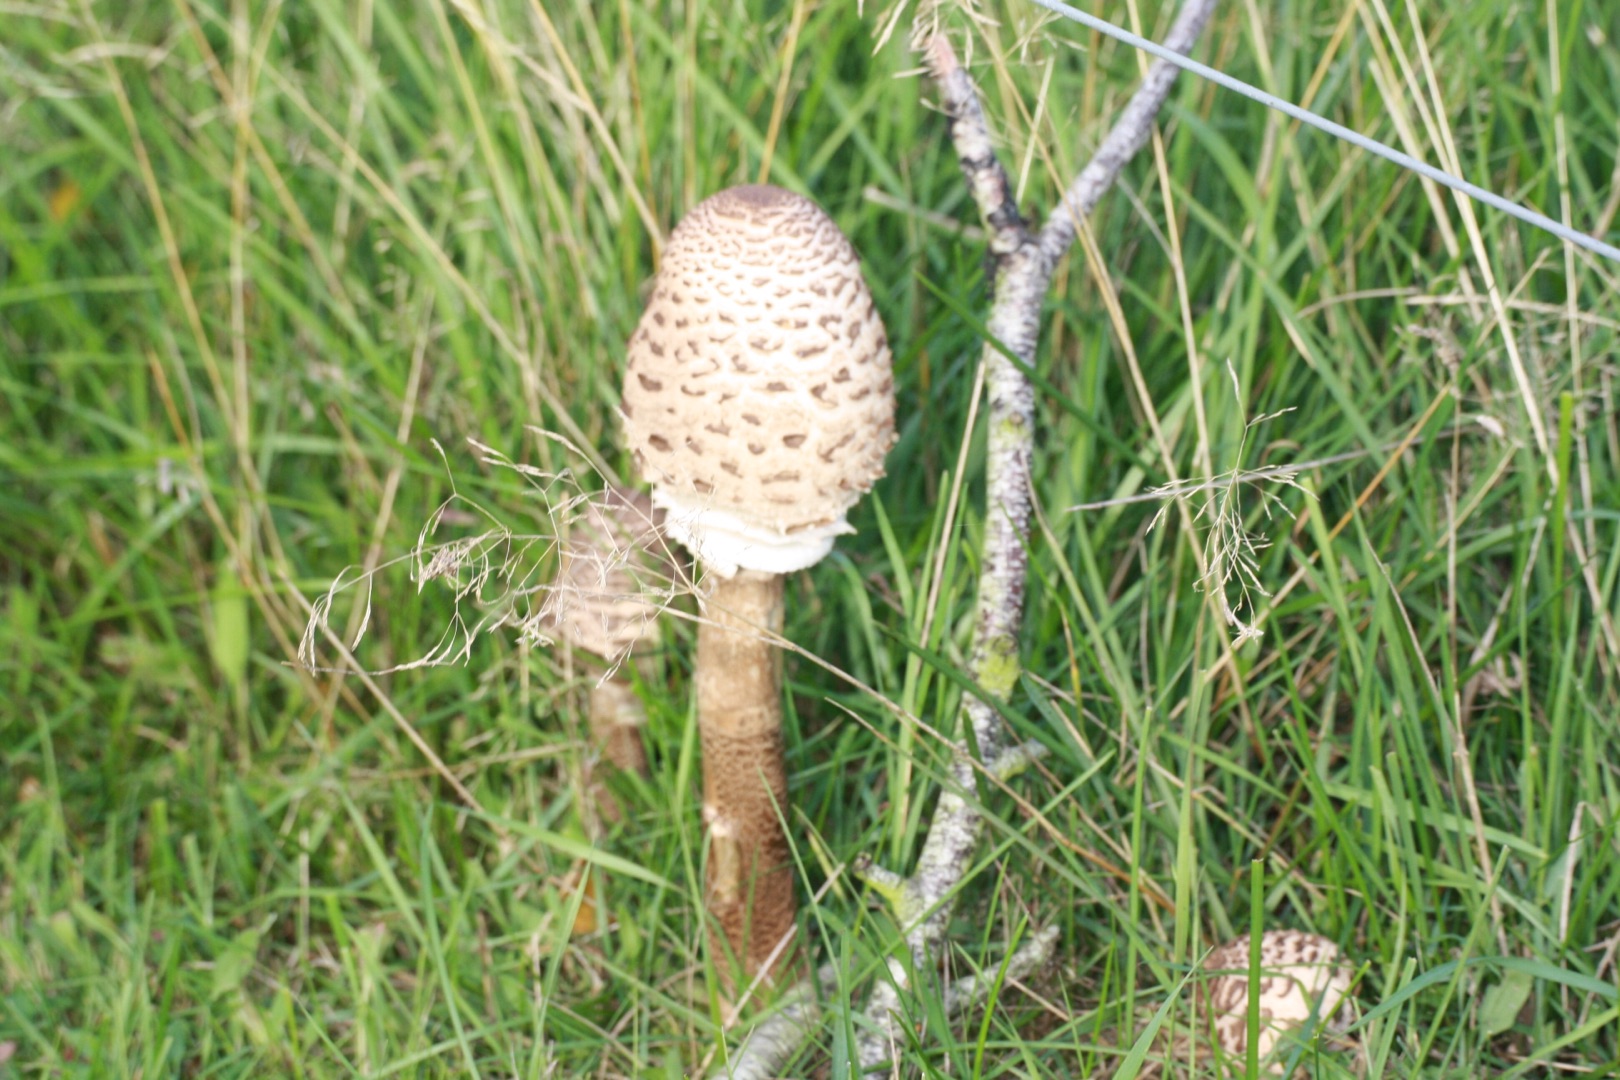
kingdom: Fungi
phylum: Basidiomycota
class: Agaricomycetes
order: Agaricales
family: Agaricaceae
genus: Macrolepiota
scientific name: Macrolepiota procera
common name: Stor kæmpeparasolhat
